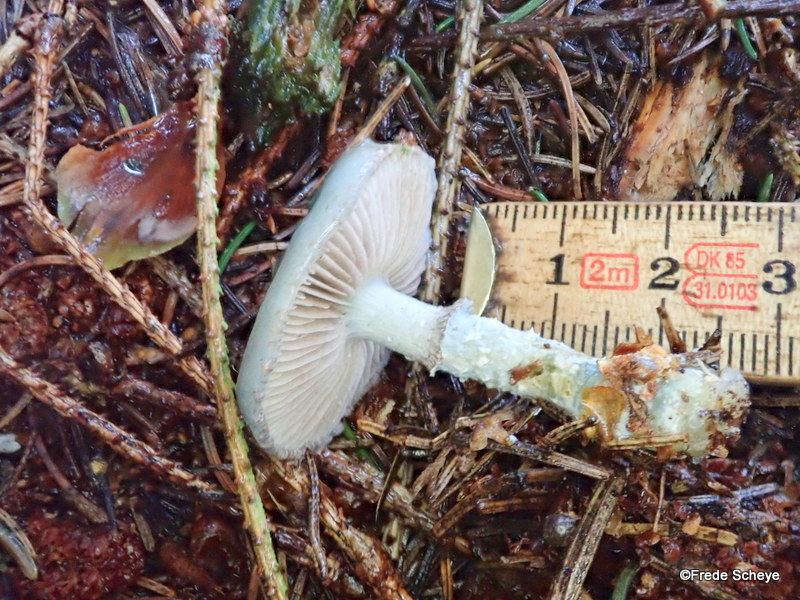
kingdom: Fungi
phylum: Basidiomycota
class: Agaricomycetes
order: Agaricales
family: Strophariaceae
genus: Stropharia
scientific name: Stropharia cyanea
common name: blågrøn bredblad
